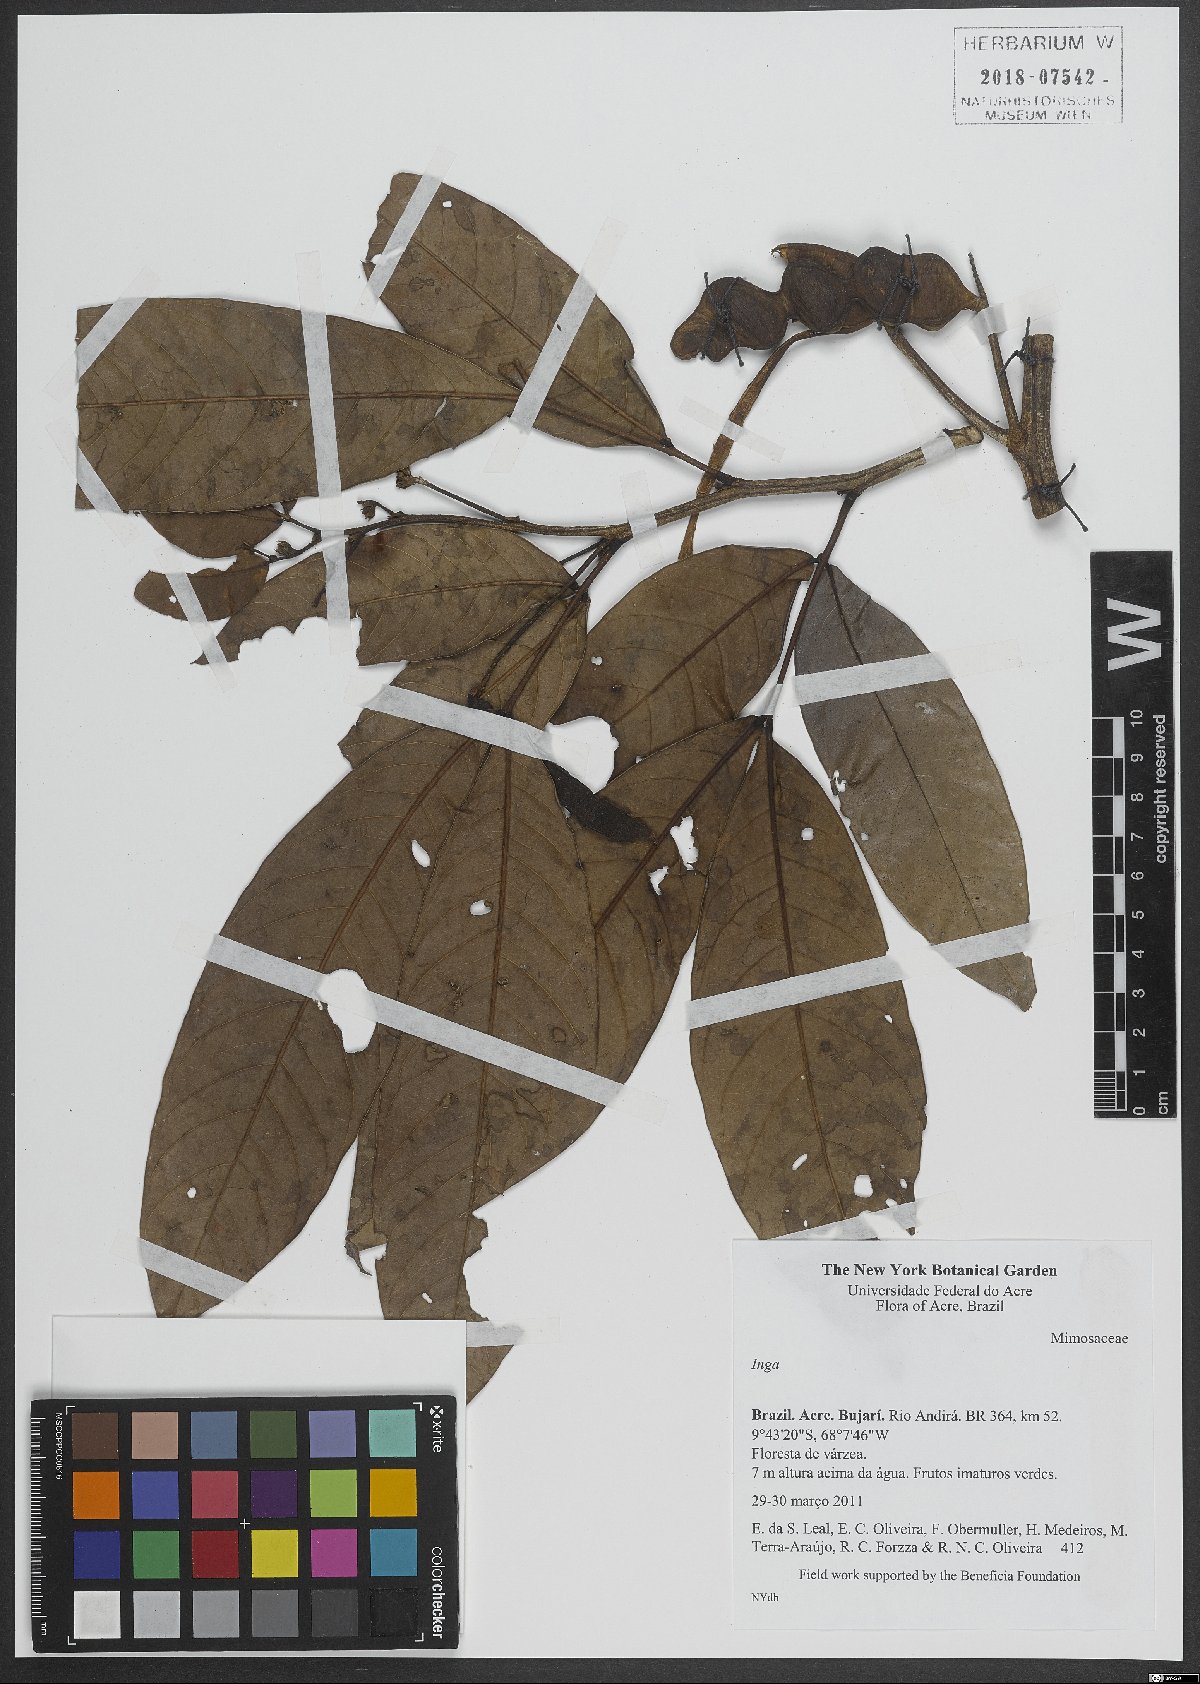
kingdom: Plantae
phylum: Tracheophyta
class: Magnoliopsida
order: Fabales
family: Fabaceae
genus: Inga
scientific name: Inga
